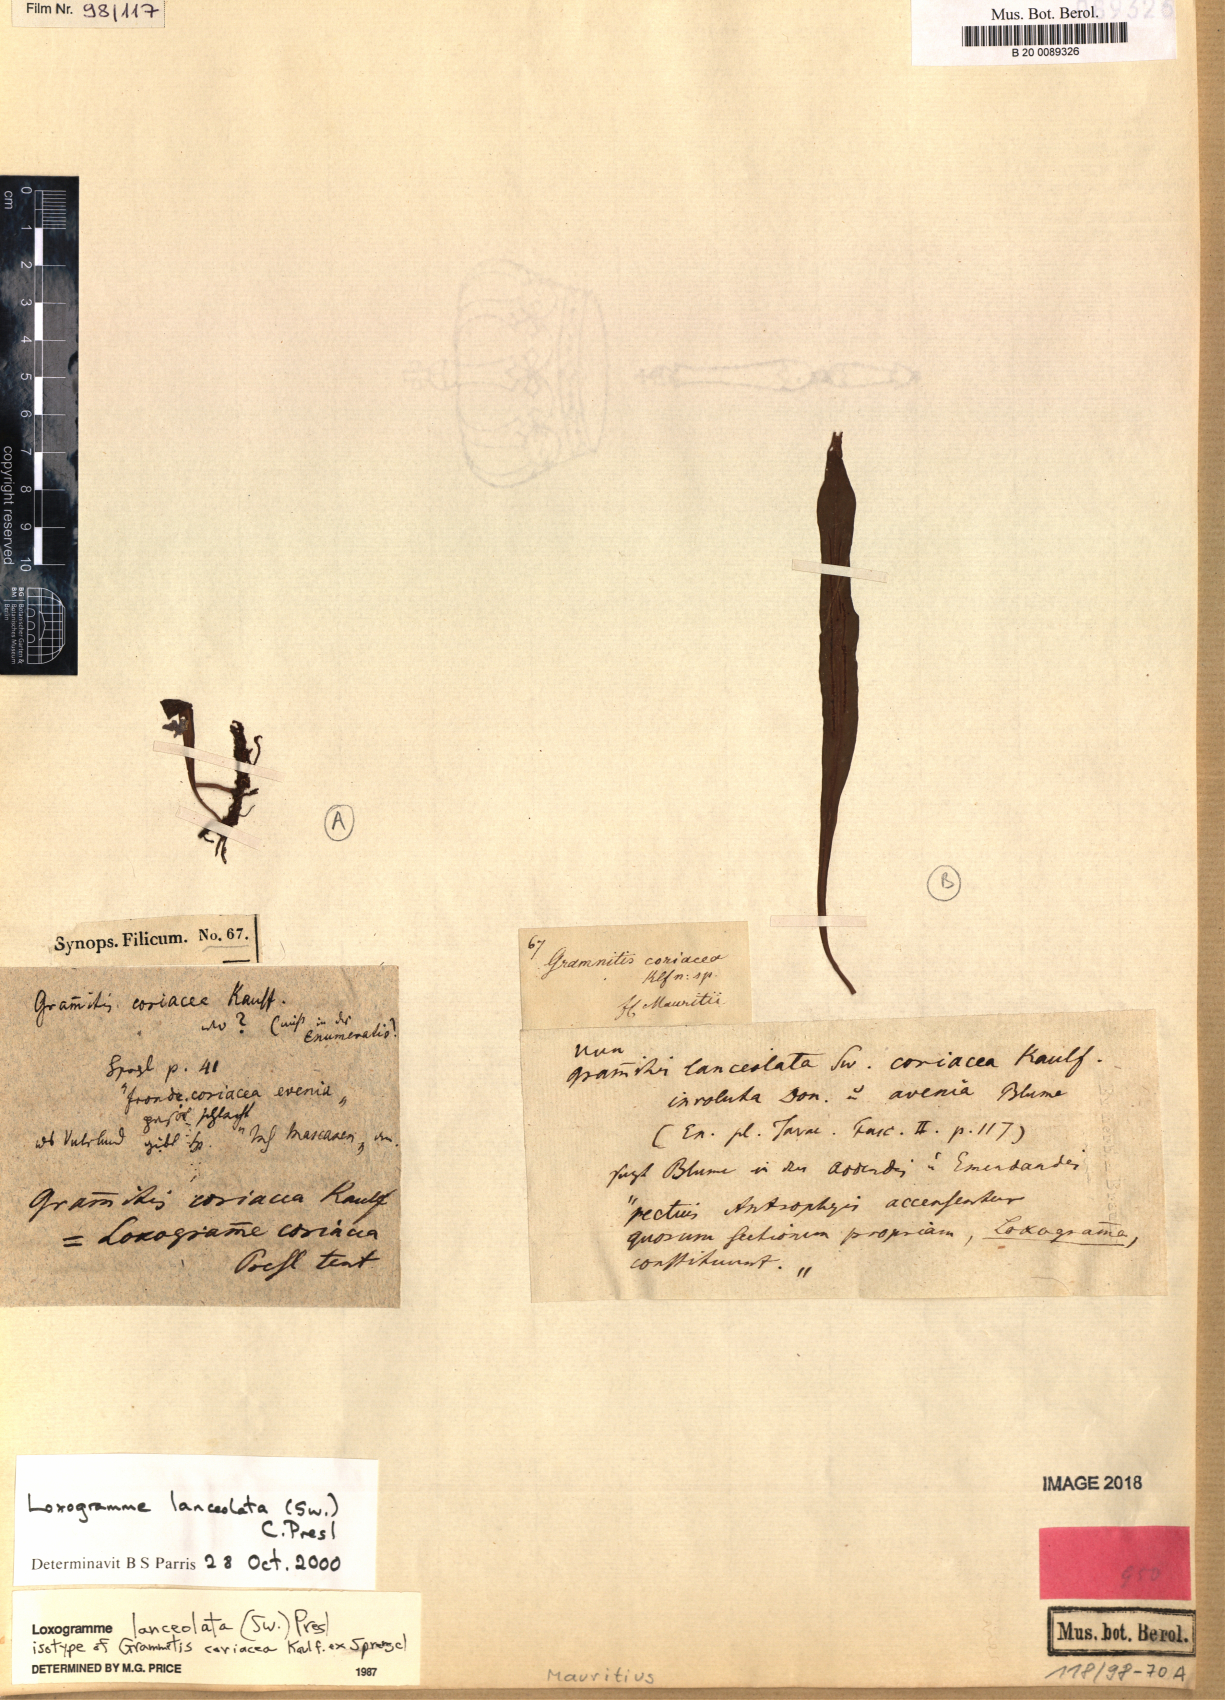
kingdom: Plantae
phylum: Tracheophyta
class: Polypodiopsida
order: Polypodiales
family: Polypodiaceae
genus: Loxogramme
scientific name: Loxogramme lanceolata
